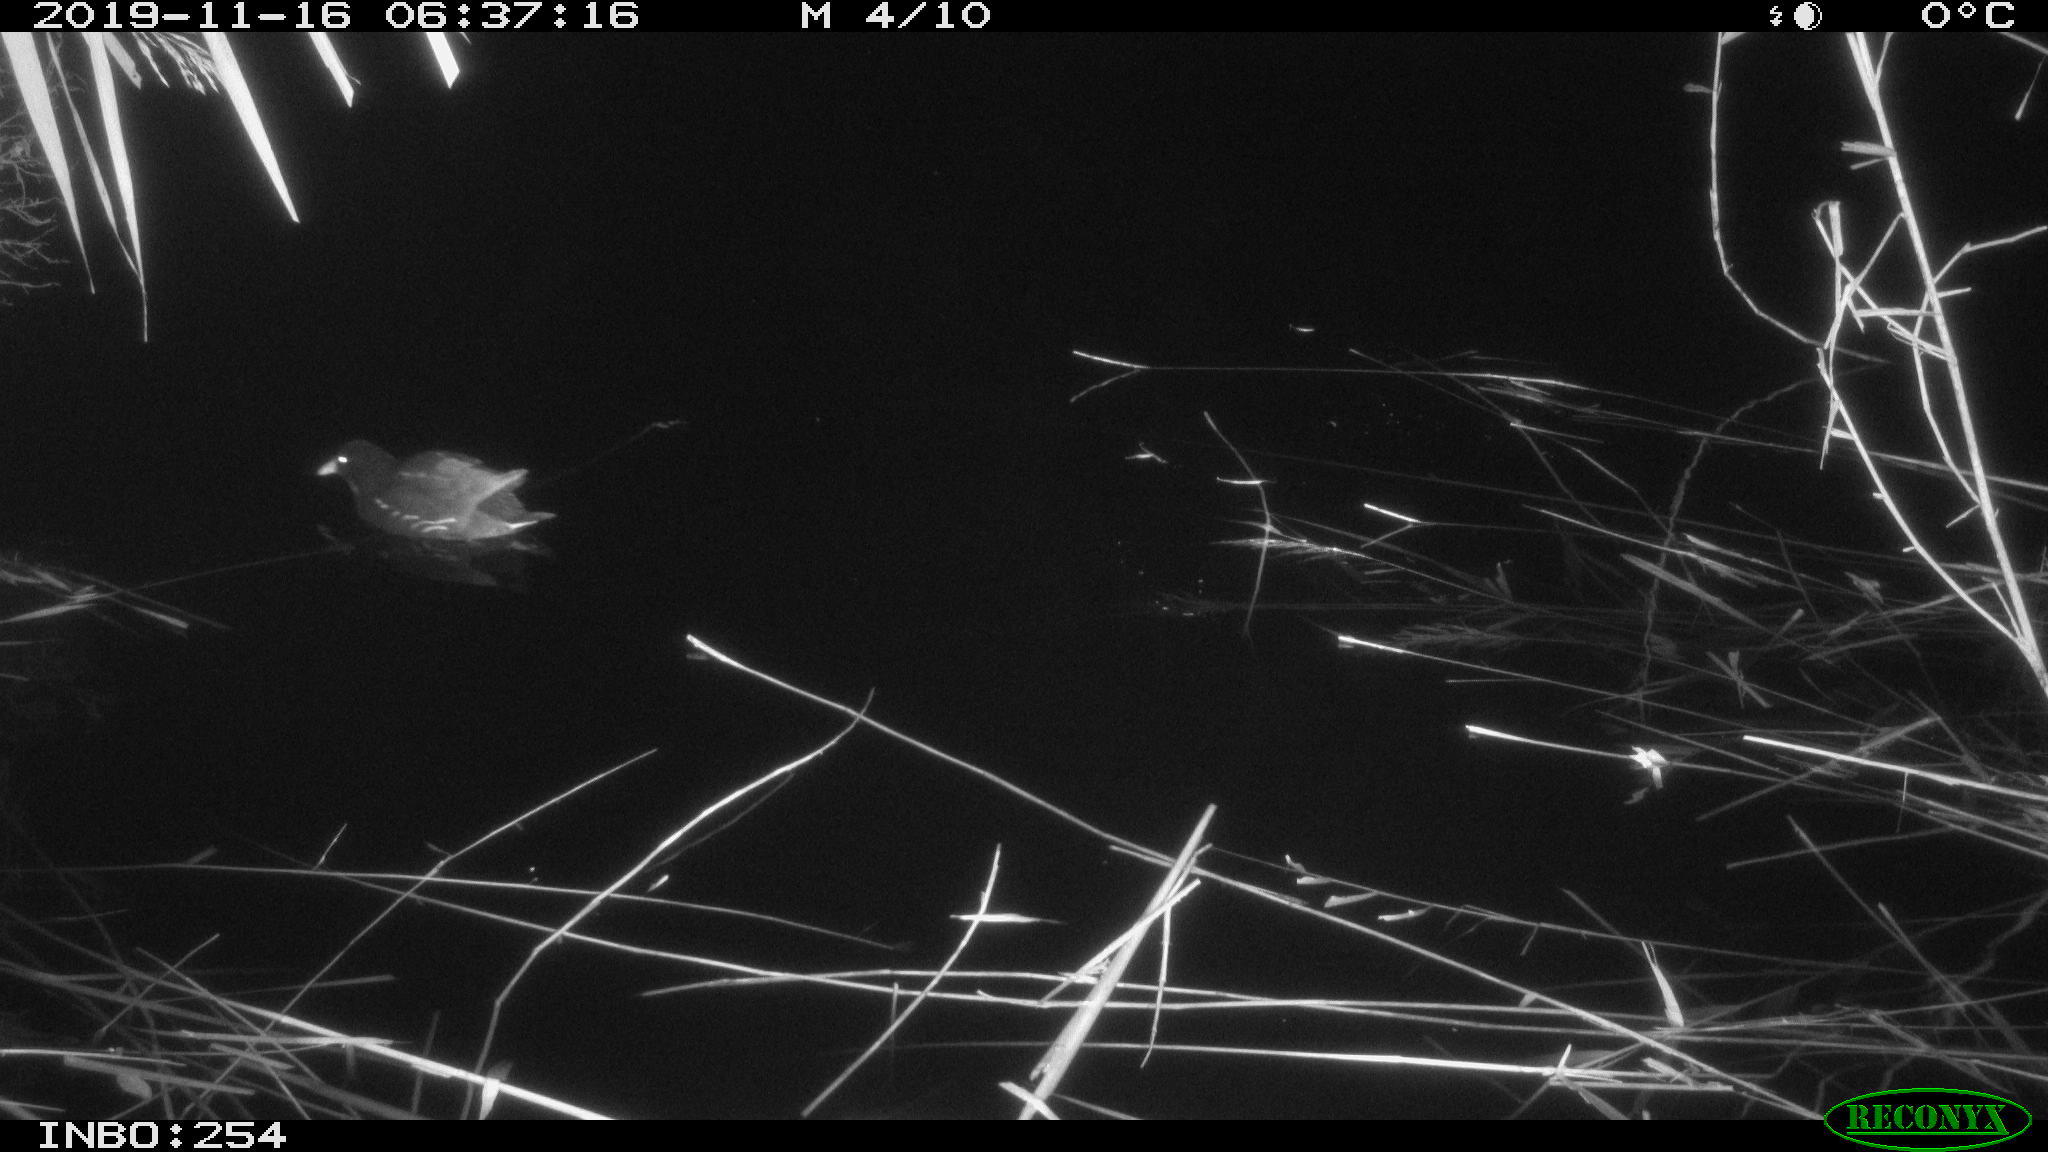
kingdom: Animalia
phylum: Chordata
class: Aves
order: Gruiformes
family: Rallidae
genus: Gallinula
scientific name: Gallinula chloropus
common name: Common moorhen
